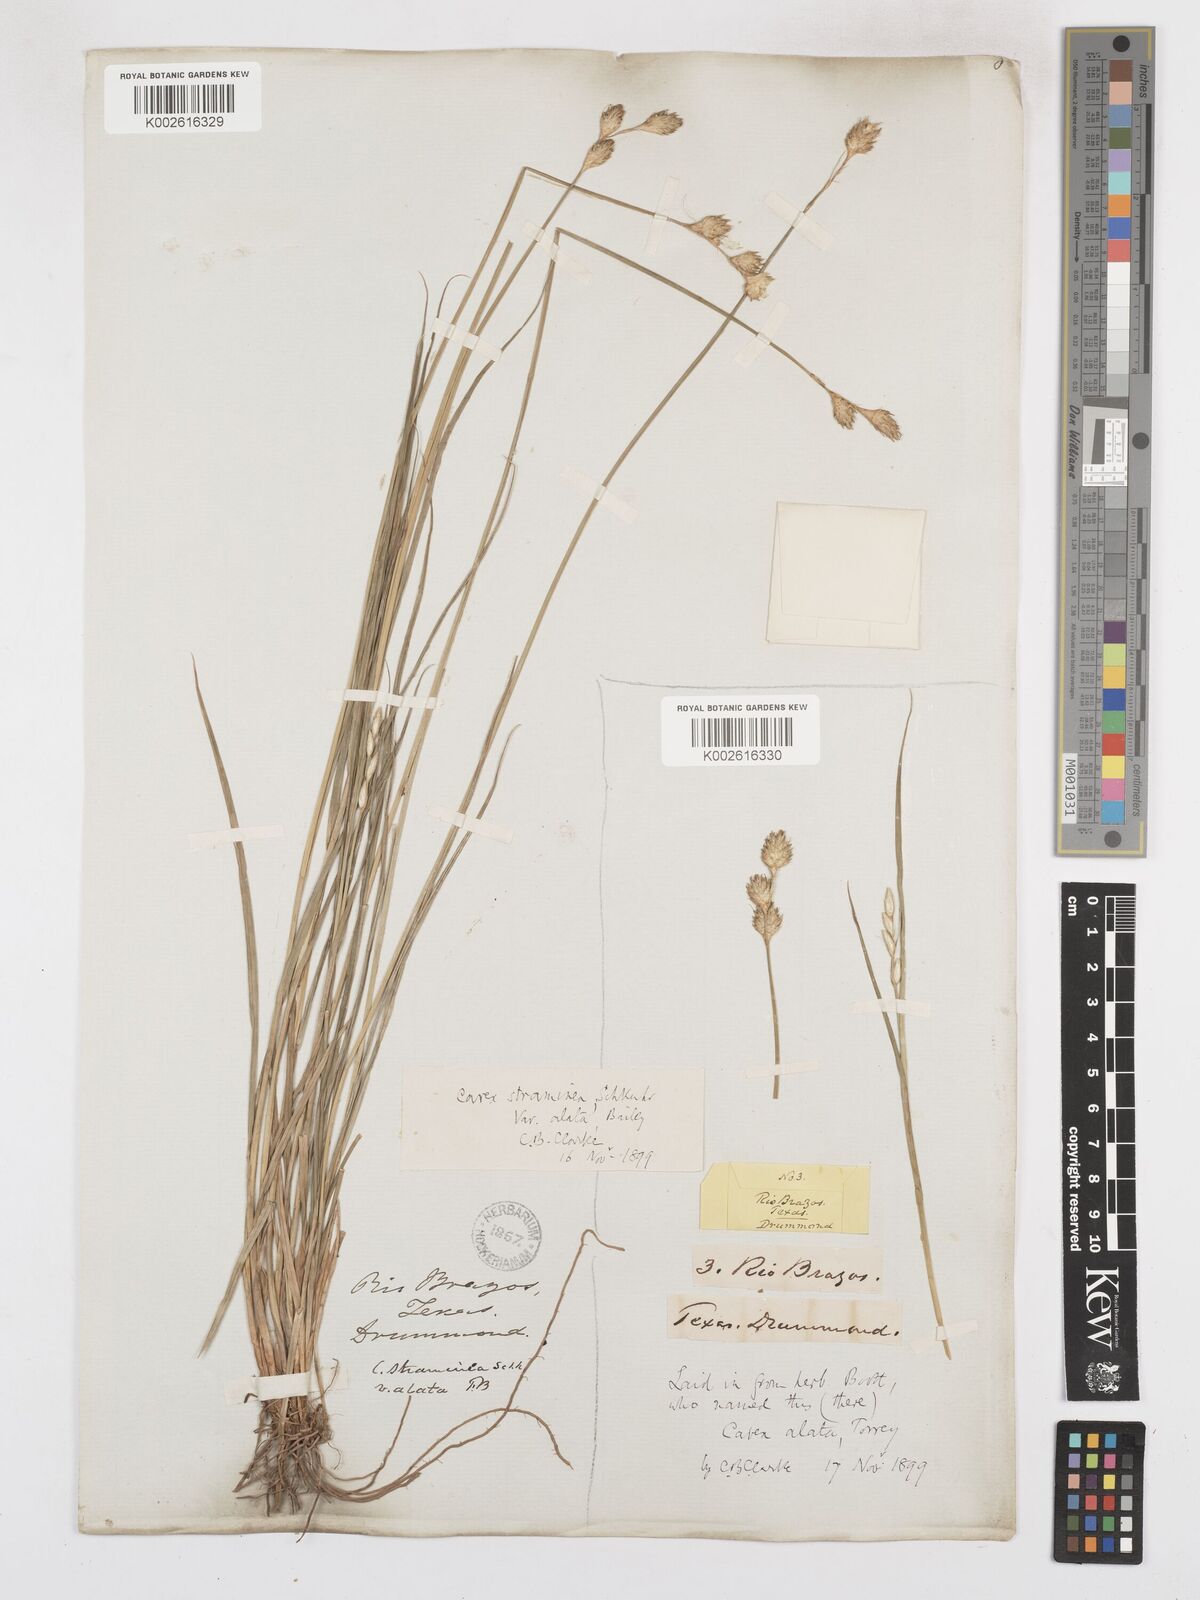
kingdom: Plantae
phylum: Tracheophyta
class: Liliopsida
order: Poales
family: Cyperaceae
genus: Carex
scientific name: Carex alata
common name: Broad-winged sedge
